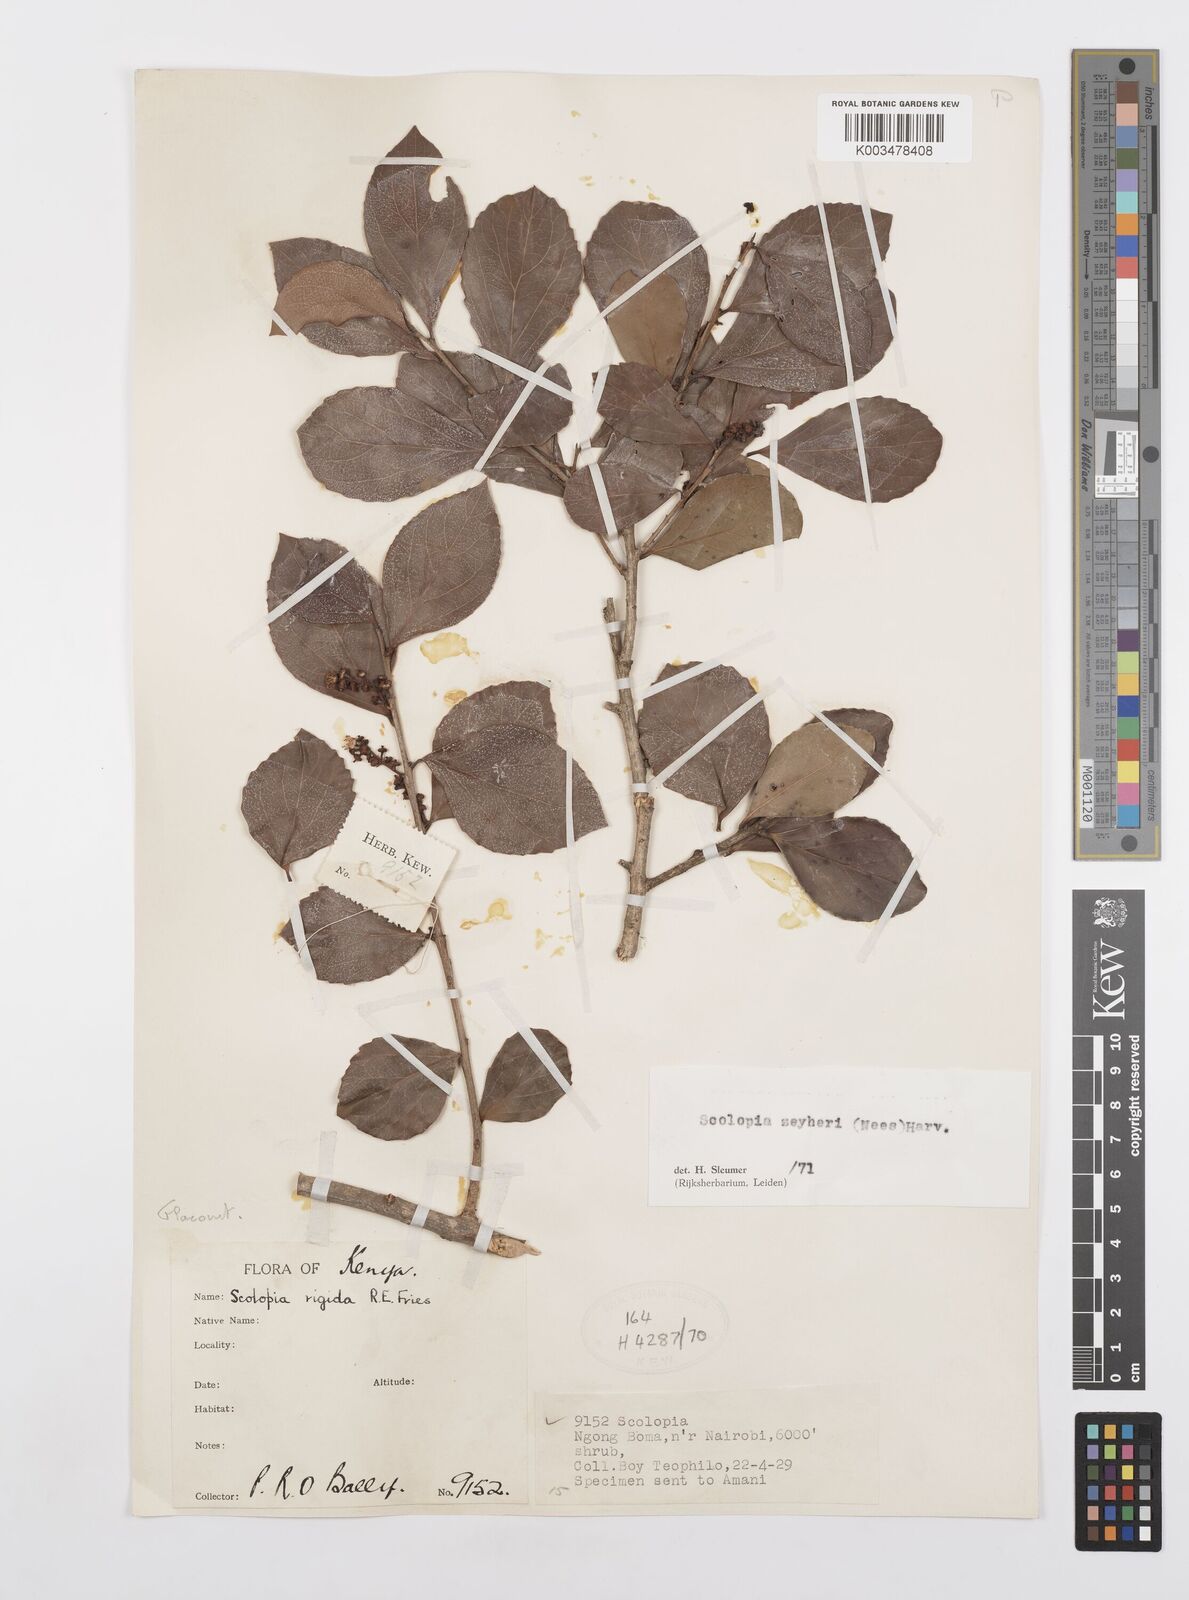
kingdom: Plantae
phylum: Tracheophyta
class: Magnoliopsida
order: Malpighiales
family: Salicaceae
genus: Scolopia
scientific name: Scolopia zeyheri
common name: Thorn pear
